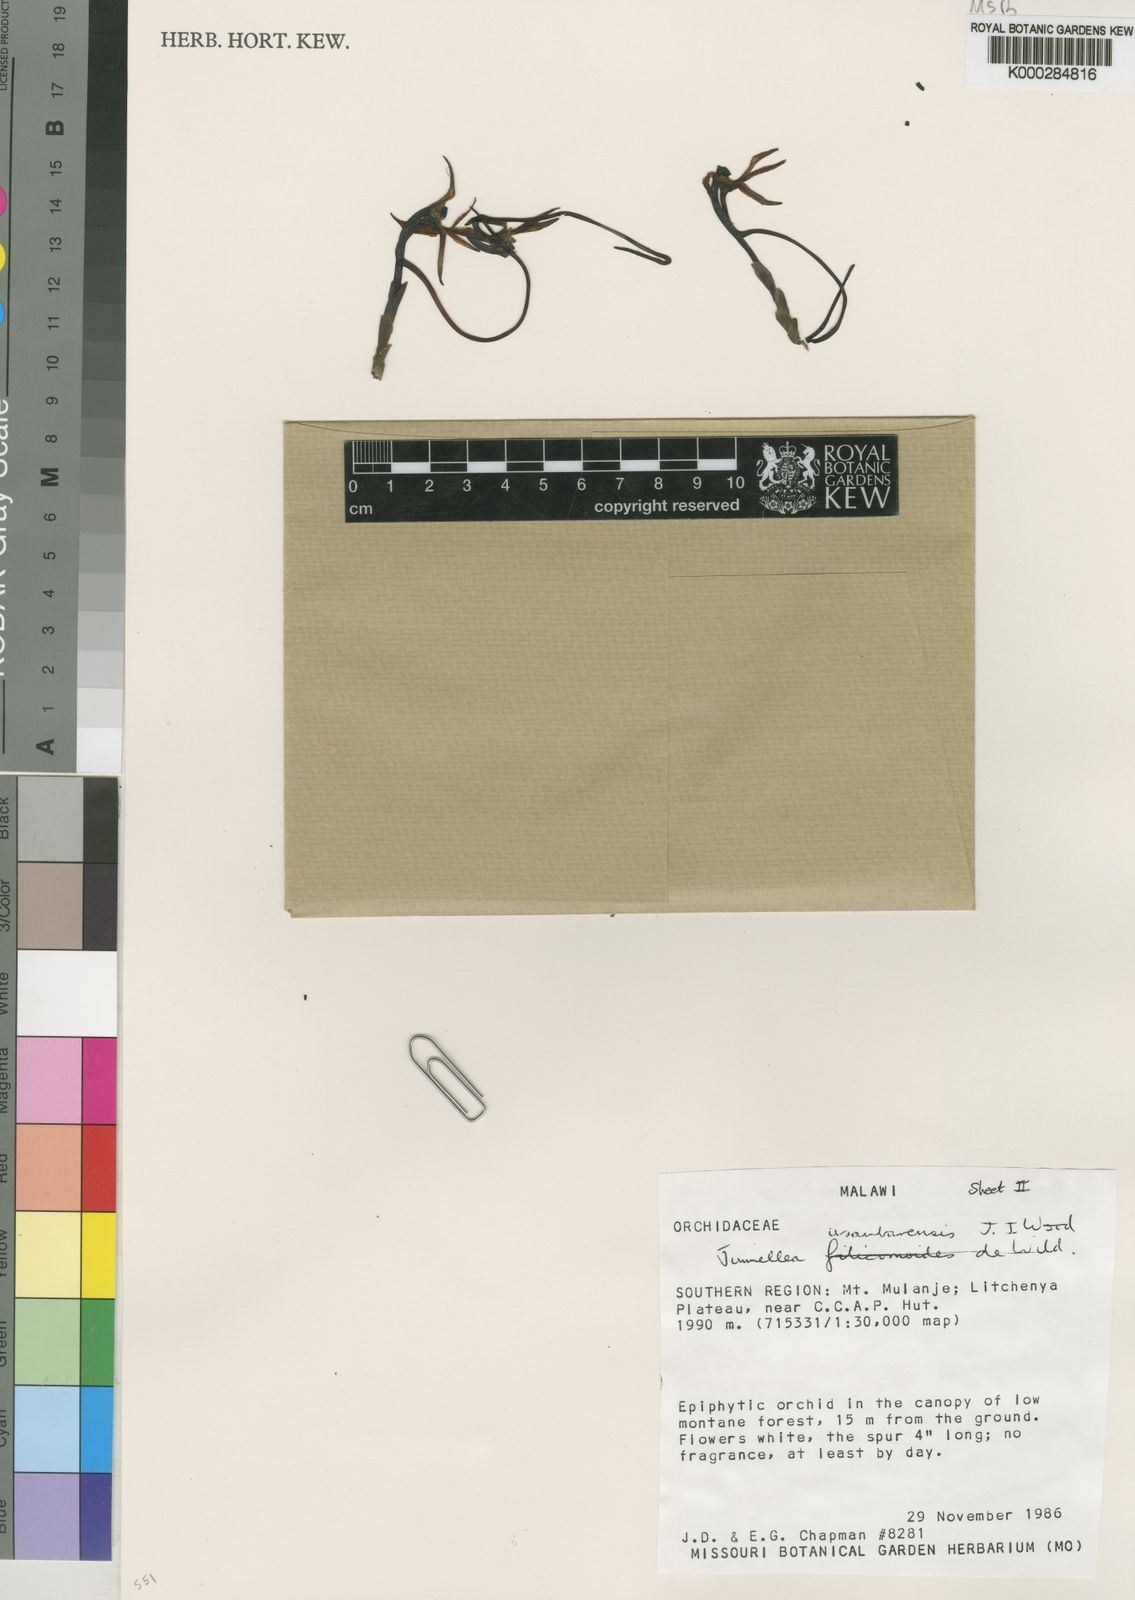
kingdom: Plantae
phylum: Tracheophyta
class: Liliopsida
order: Asparagales
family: Orchidaceae
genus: Jumellea
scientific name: Jumellea usambarensis
